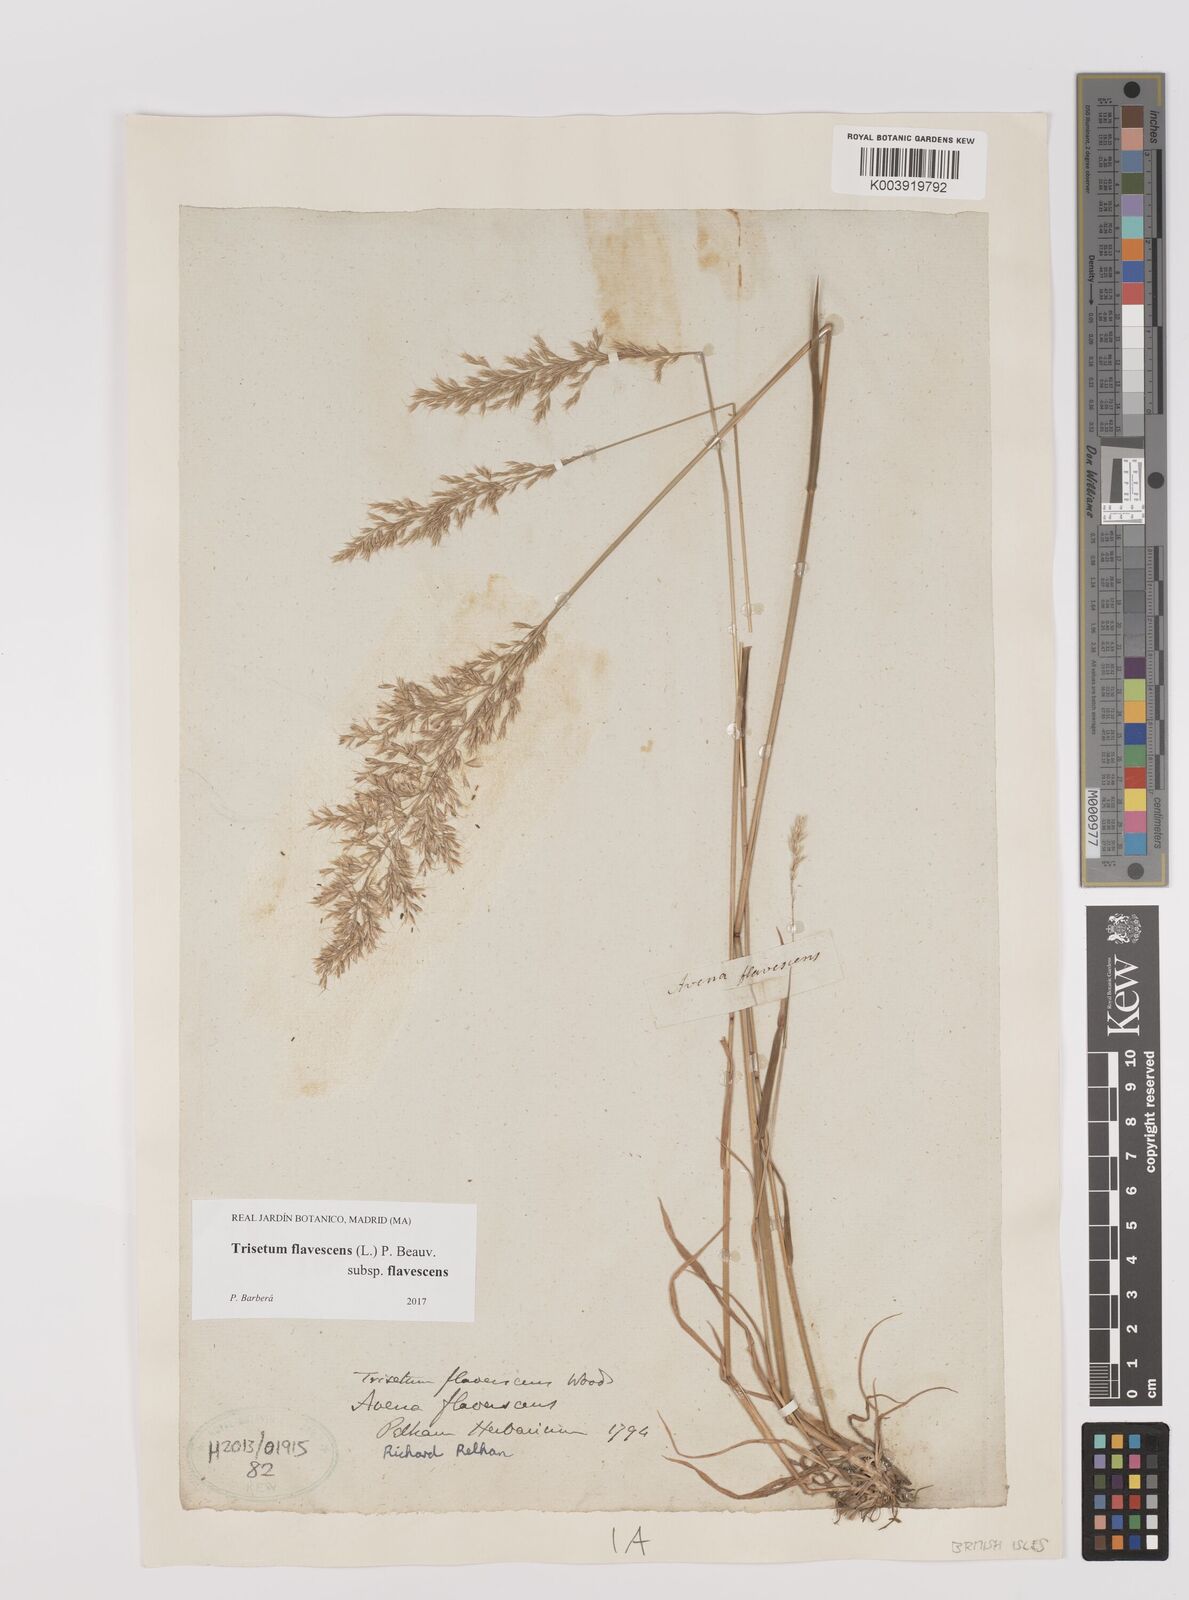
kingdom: Plantae
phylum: Tracheophyta
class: Liliopsida
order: Poales
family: Poaceae
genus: Trisetum
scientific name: Trisetum flavescens
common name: Yellow oat-grass
